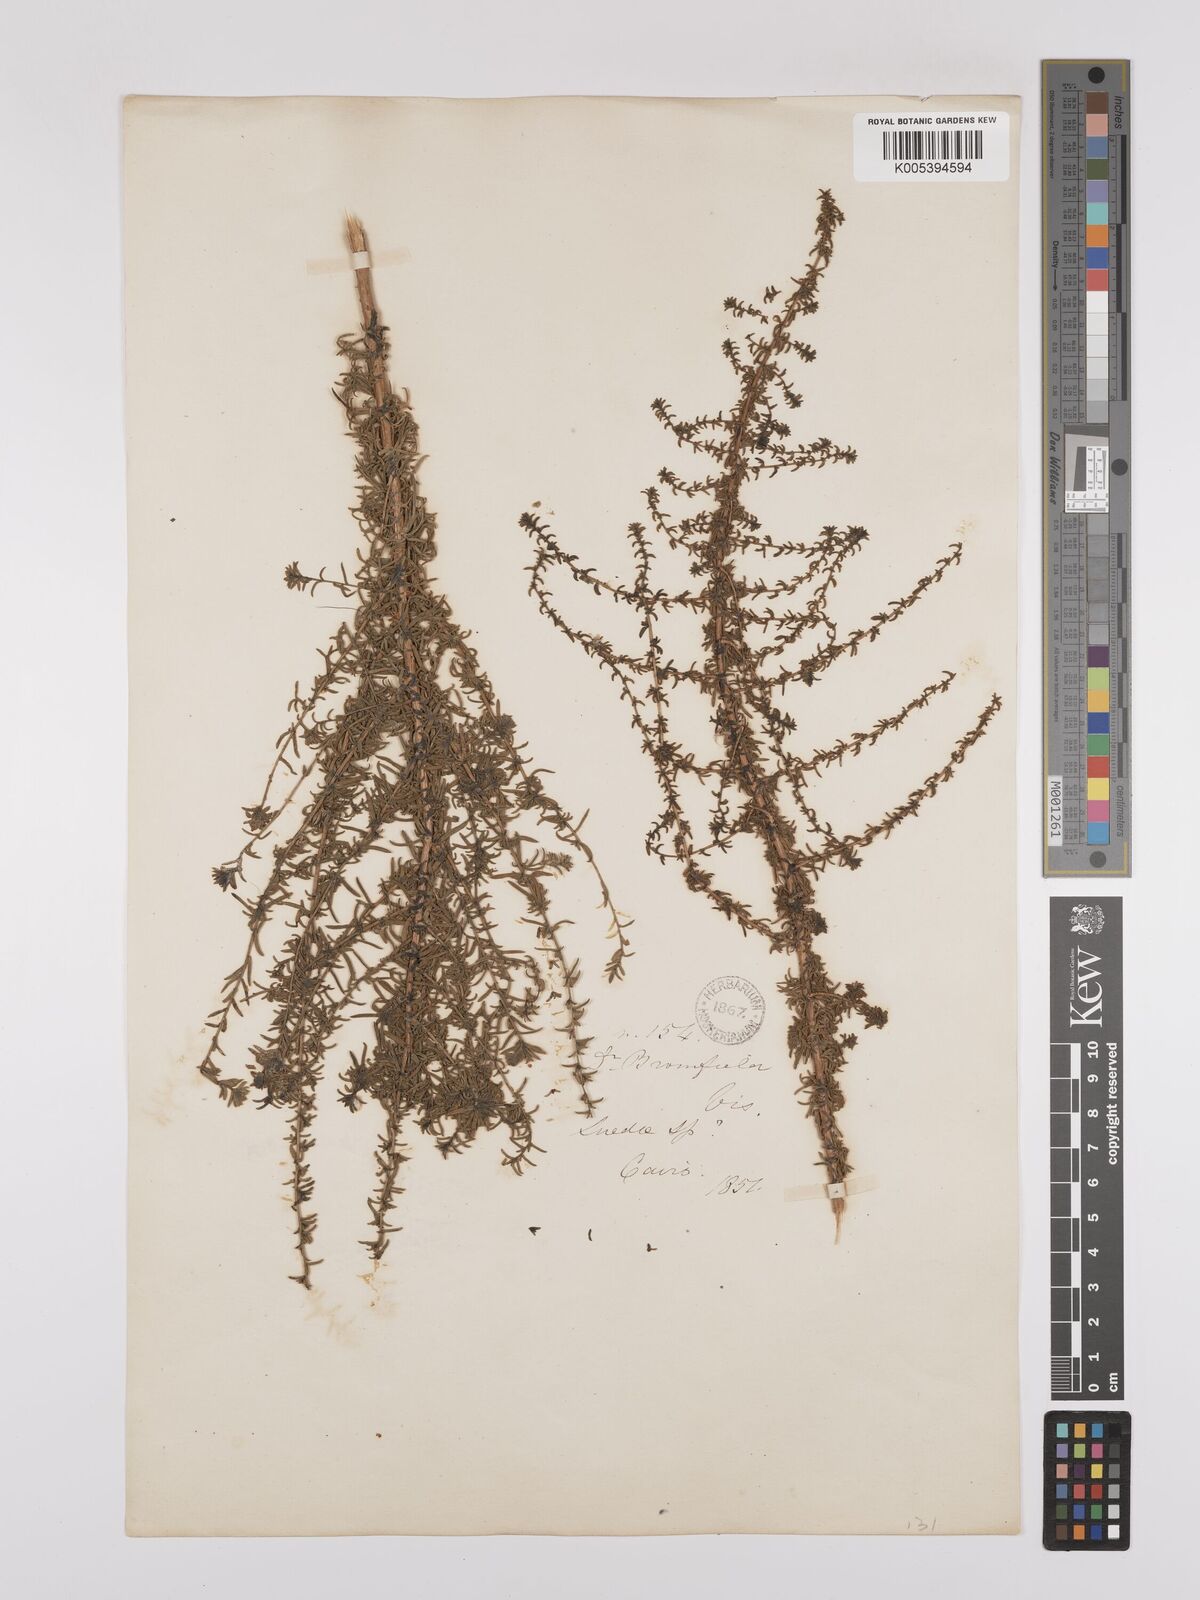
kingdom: Plantae
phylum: Tracheophyta
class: Magnoliopsida
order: Caryophyllales
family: Amaranthaceae
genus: Suaeda
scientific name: Suaeda
